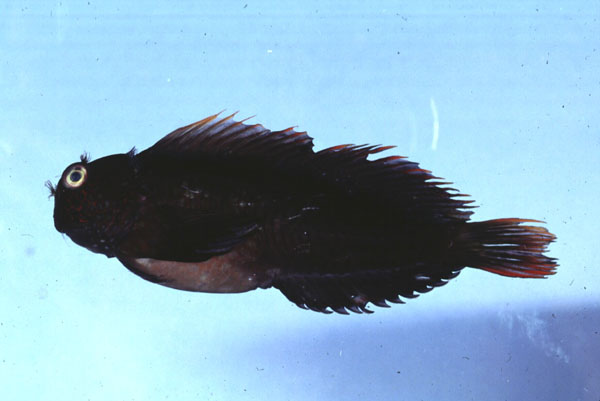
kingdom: Animalia
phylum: Chordata
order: Perciformes
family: Blenniidae
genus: Cirripectes
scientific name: Cirripectes stigmaticus
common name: Red-streaked blenny
